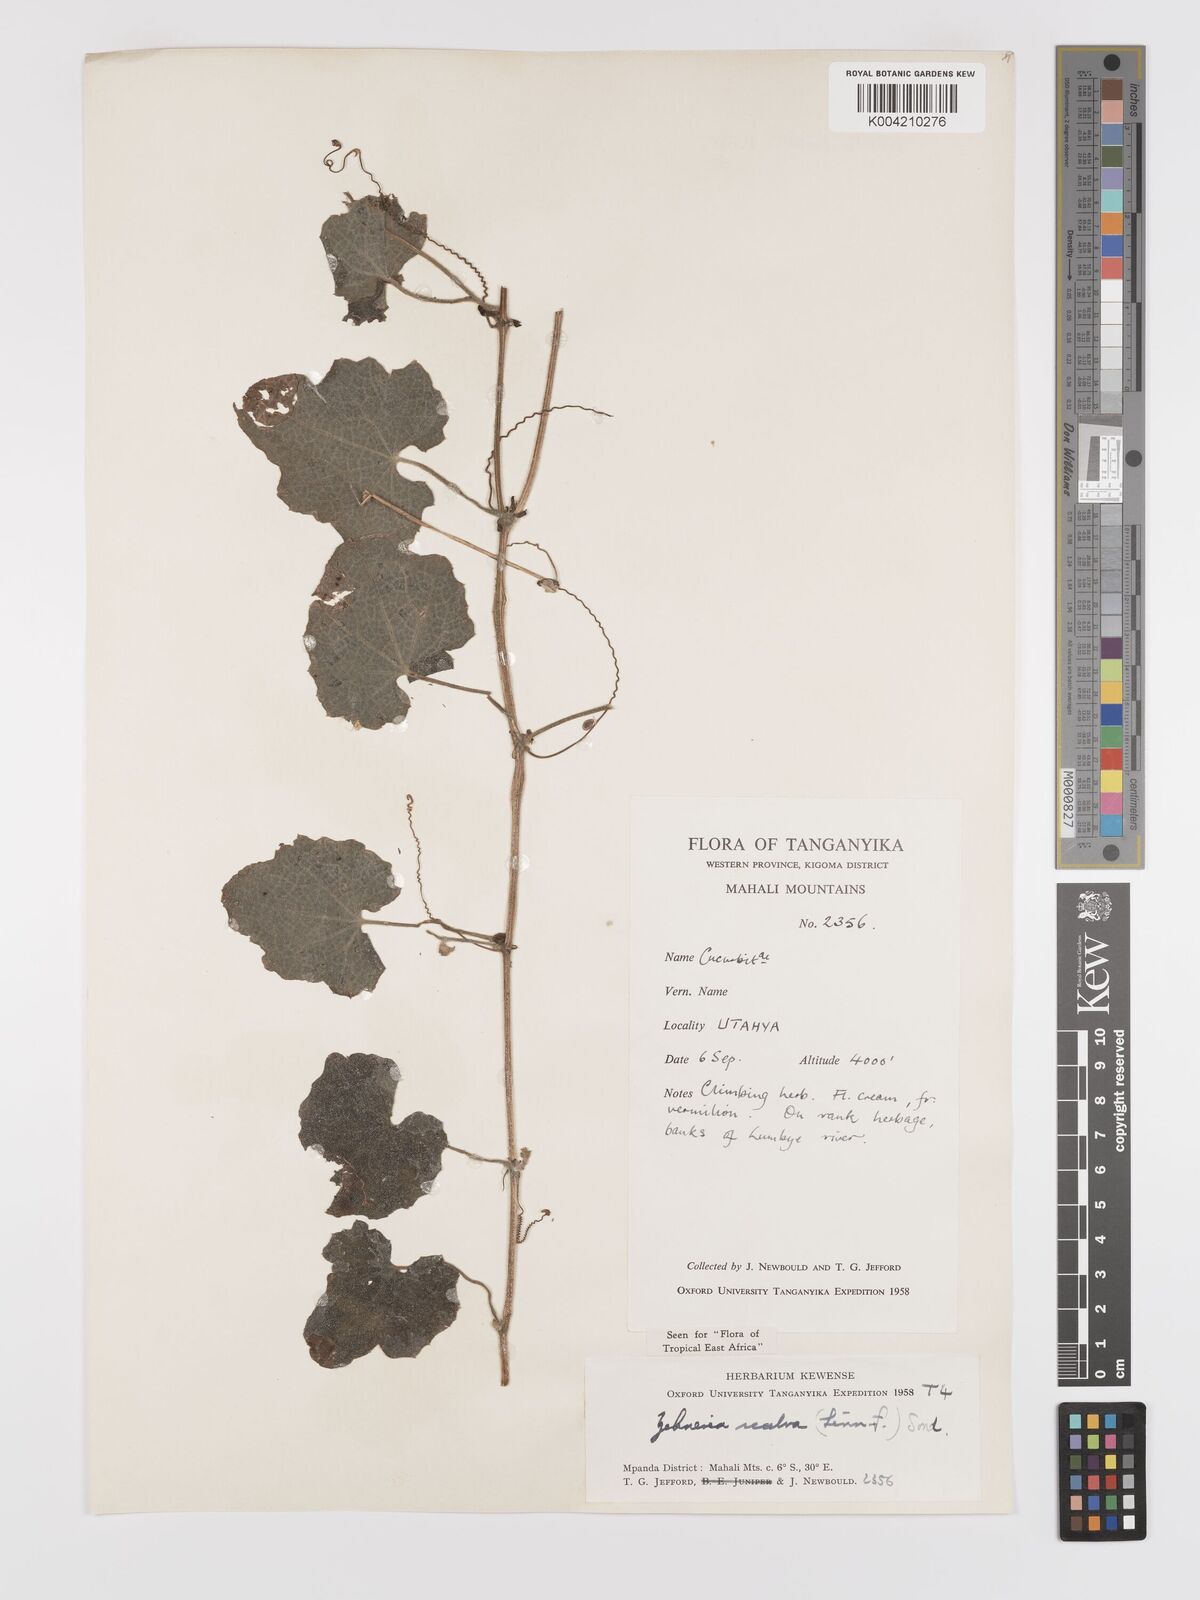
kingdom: Plantae
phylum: Tracheophyta
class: Magnoliopsida
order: Cucurbitales
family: Cucurbitaceae
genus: Zehneria
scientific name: Zehneria scabra
